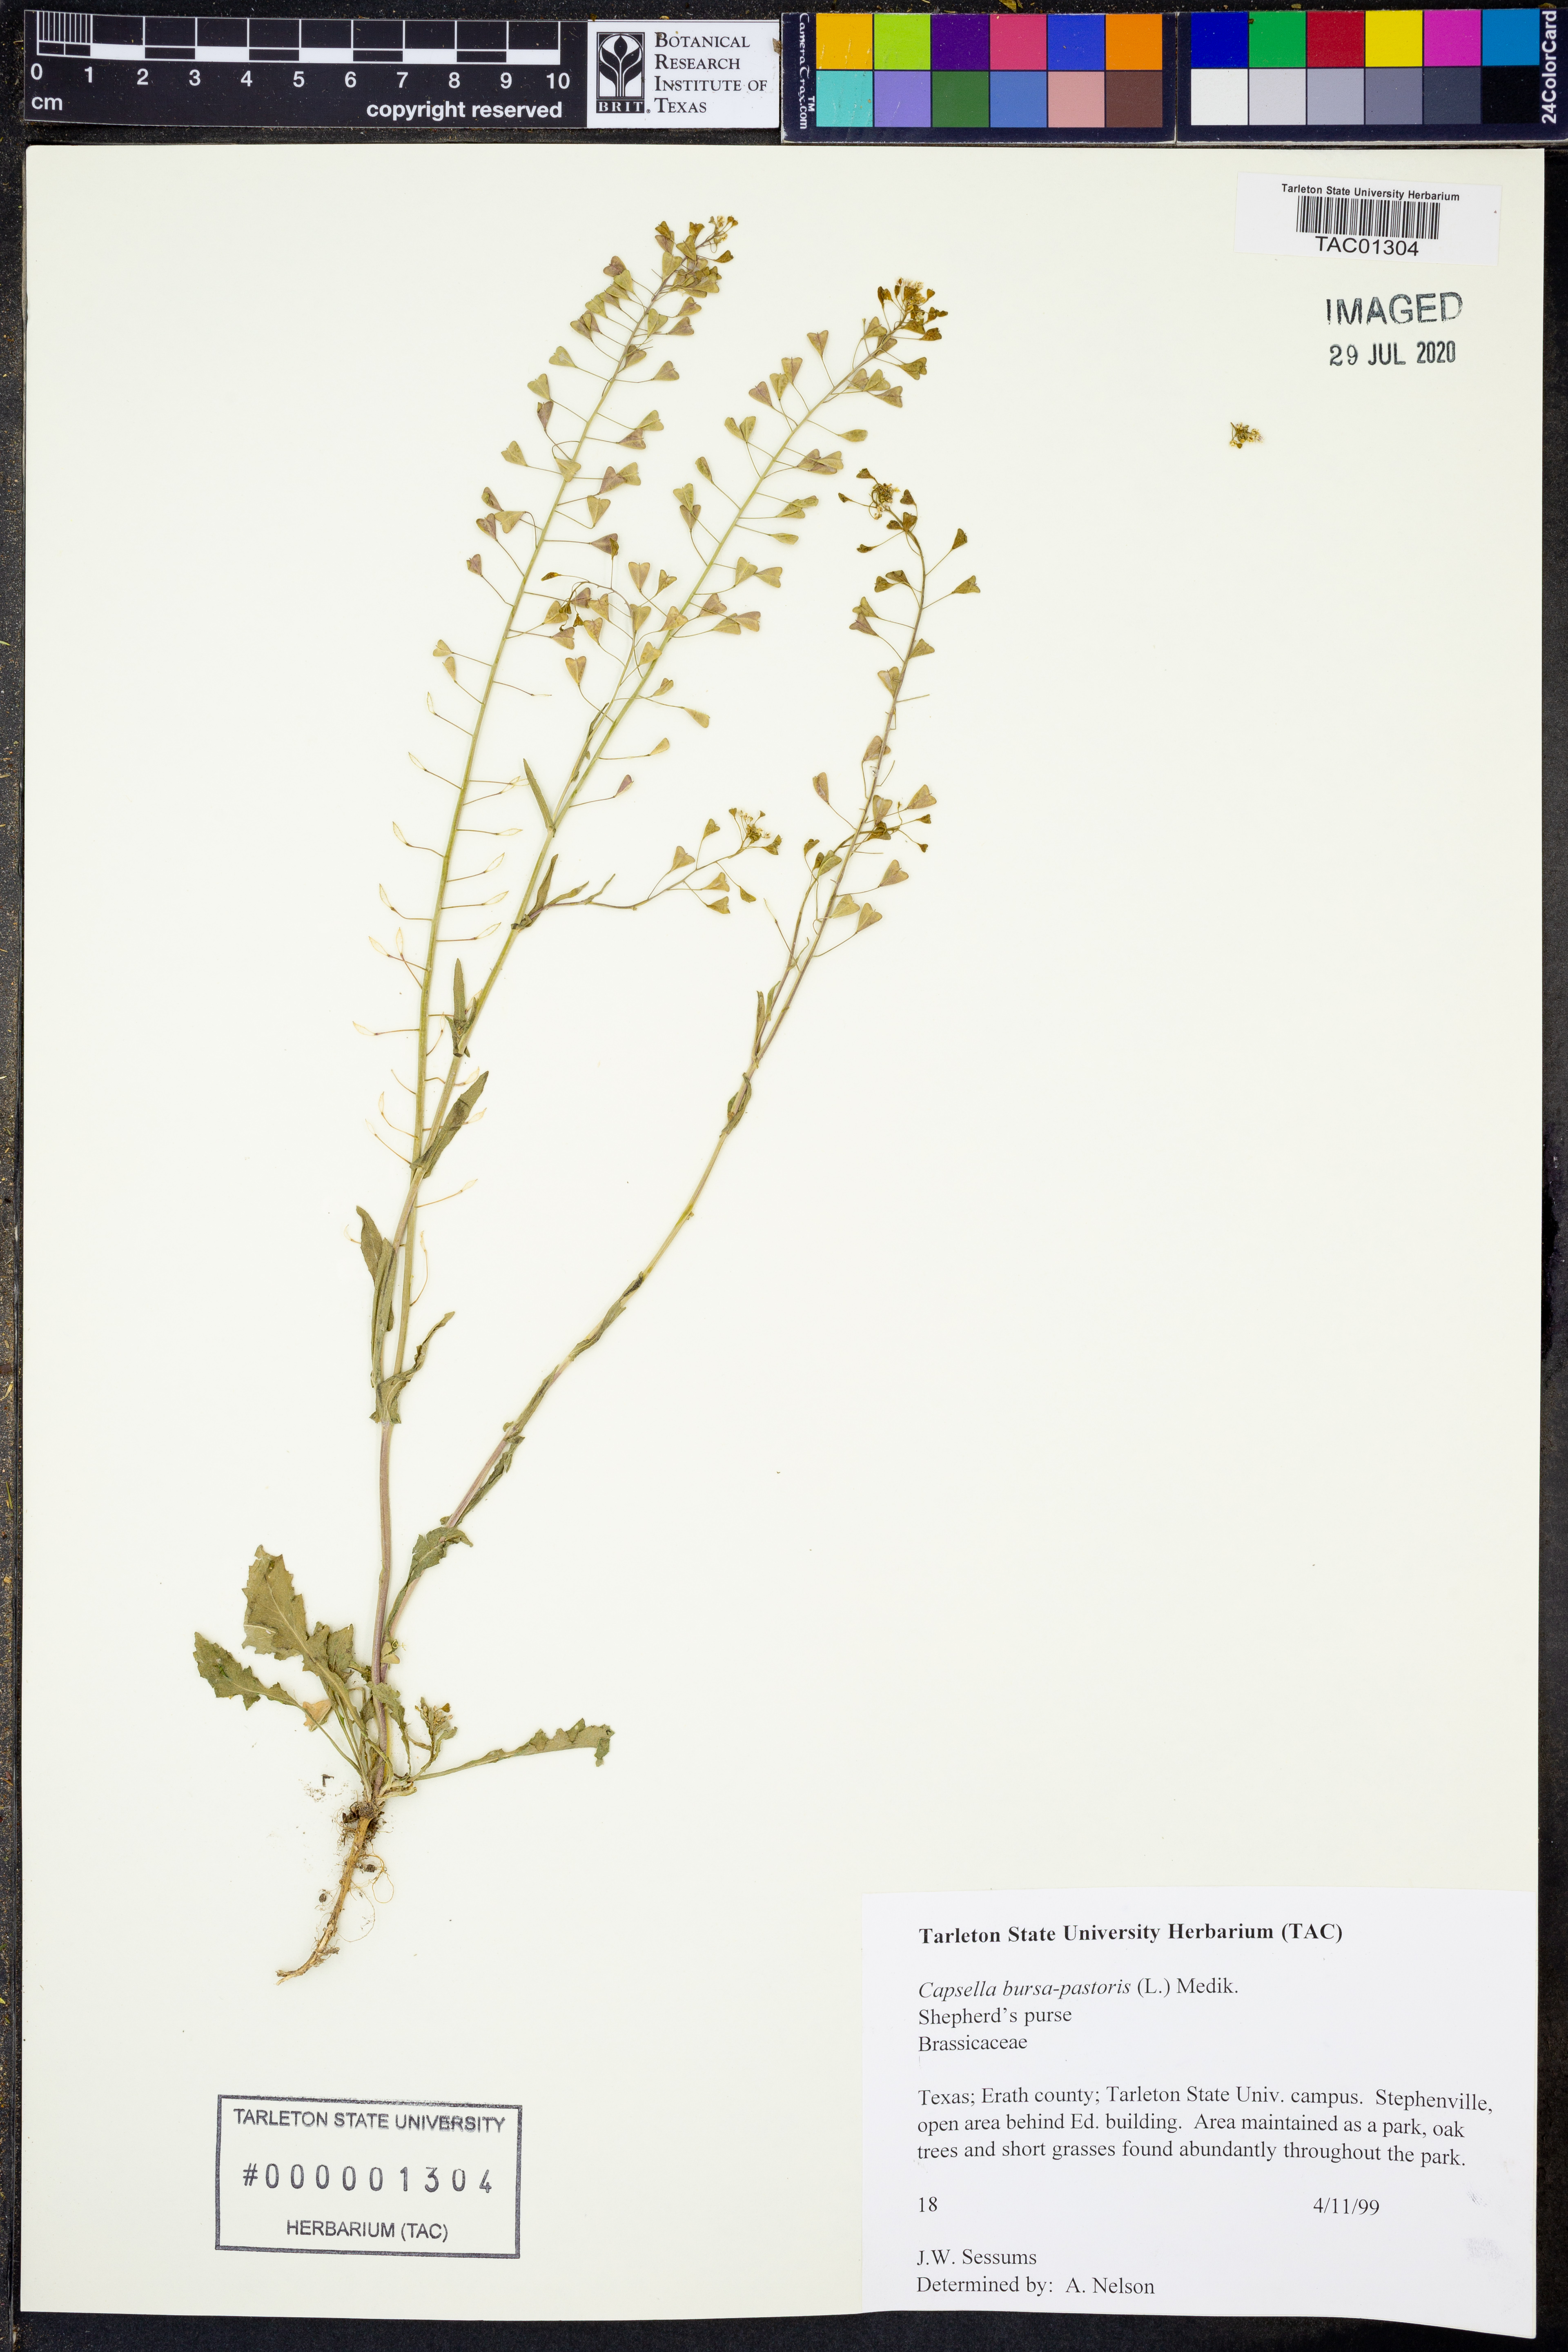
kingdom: Plantae
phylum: Tracheophyta
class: Magnoliopsida
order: Brassicales
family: Brassicaceae
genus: Capsella
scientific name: Capsella bursa-pastoris
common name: Shepherd's purse
